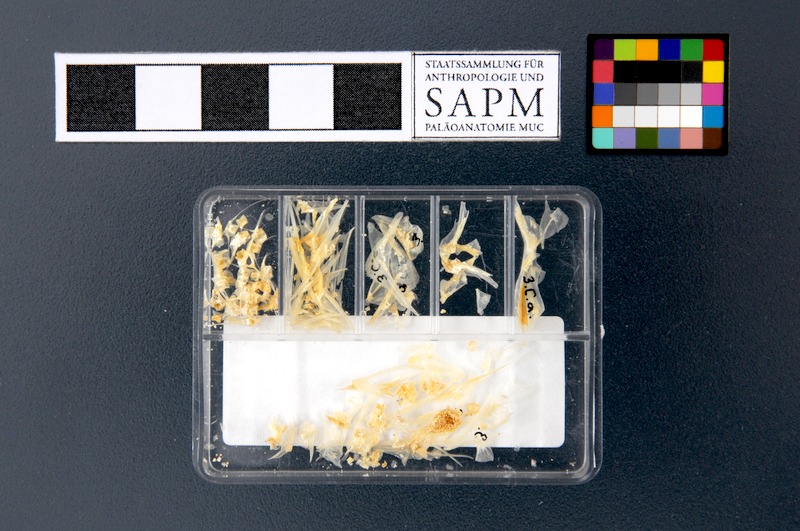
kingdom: Animalia
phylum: Chordata
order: Perciformes
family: Caproidae
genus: Capros
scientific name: Capros aper
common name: Boarfish
